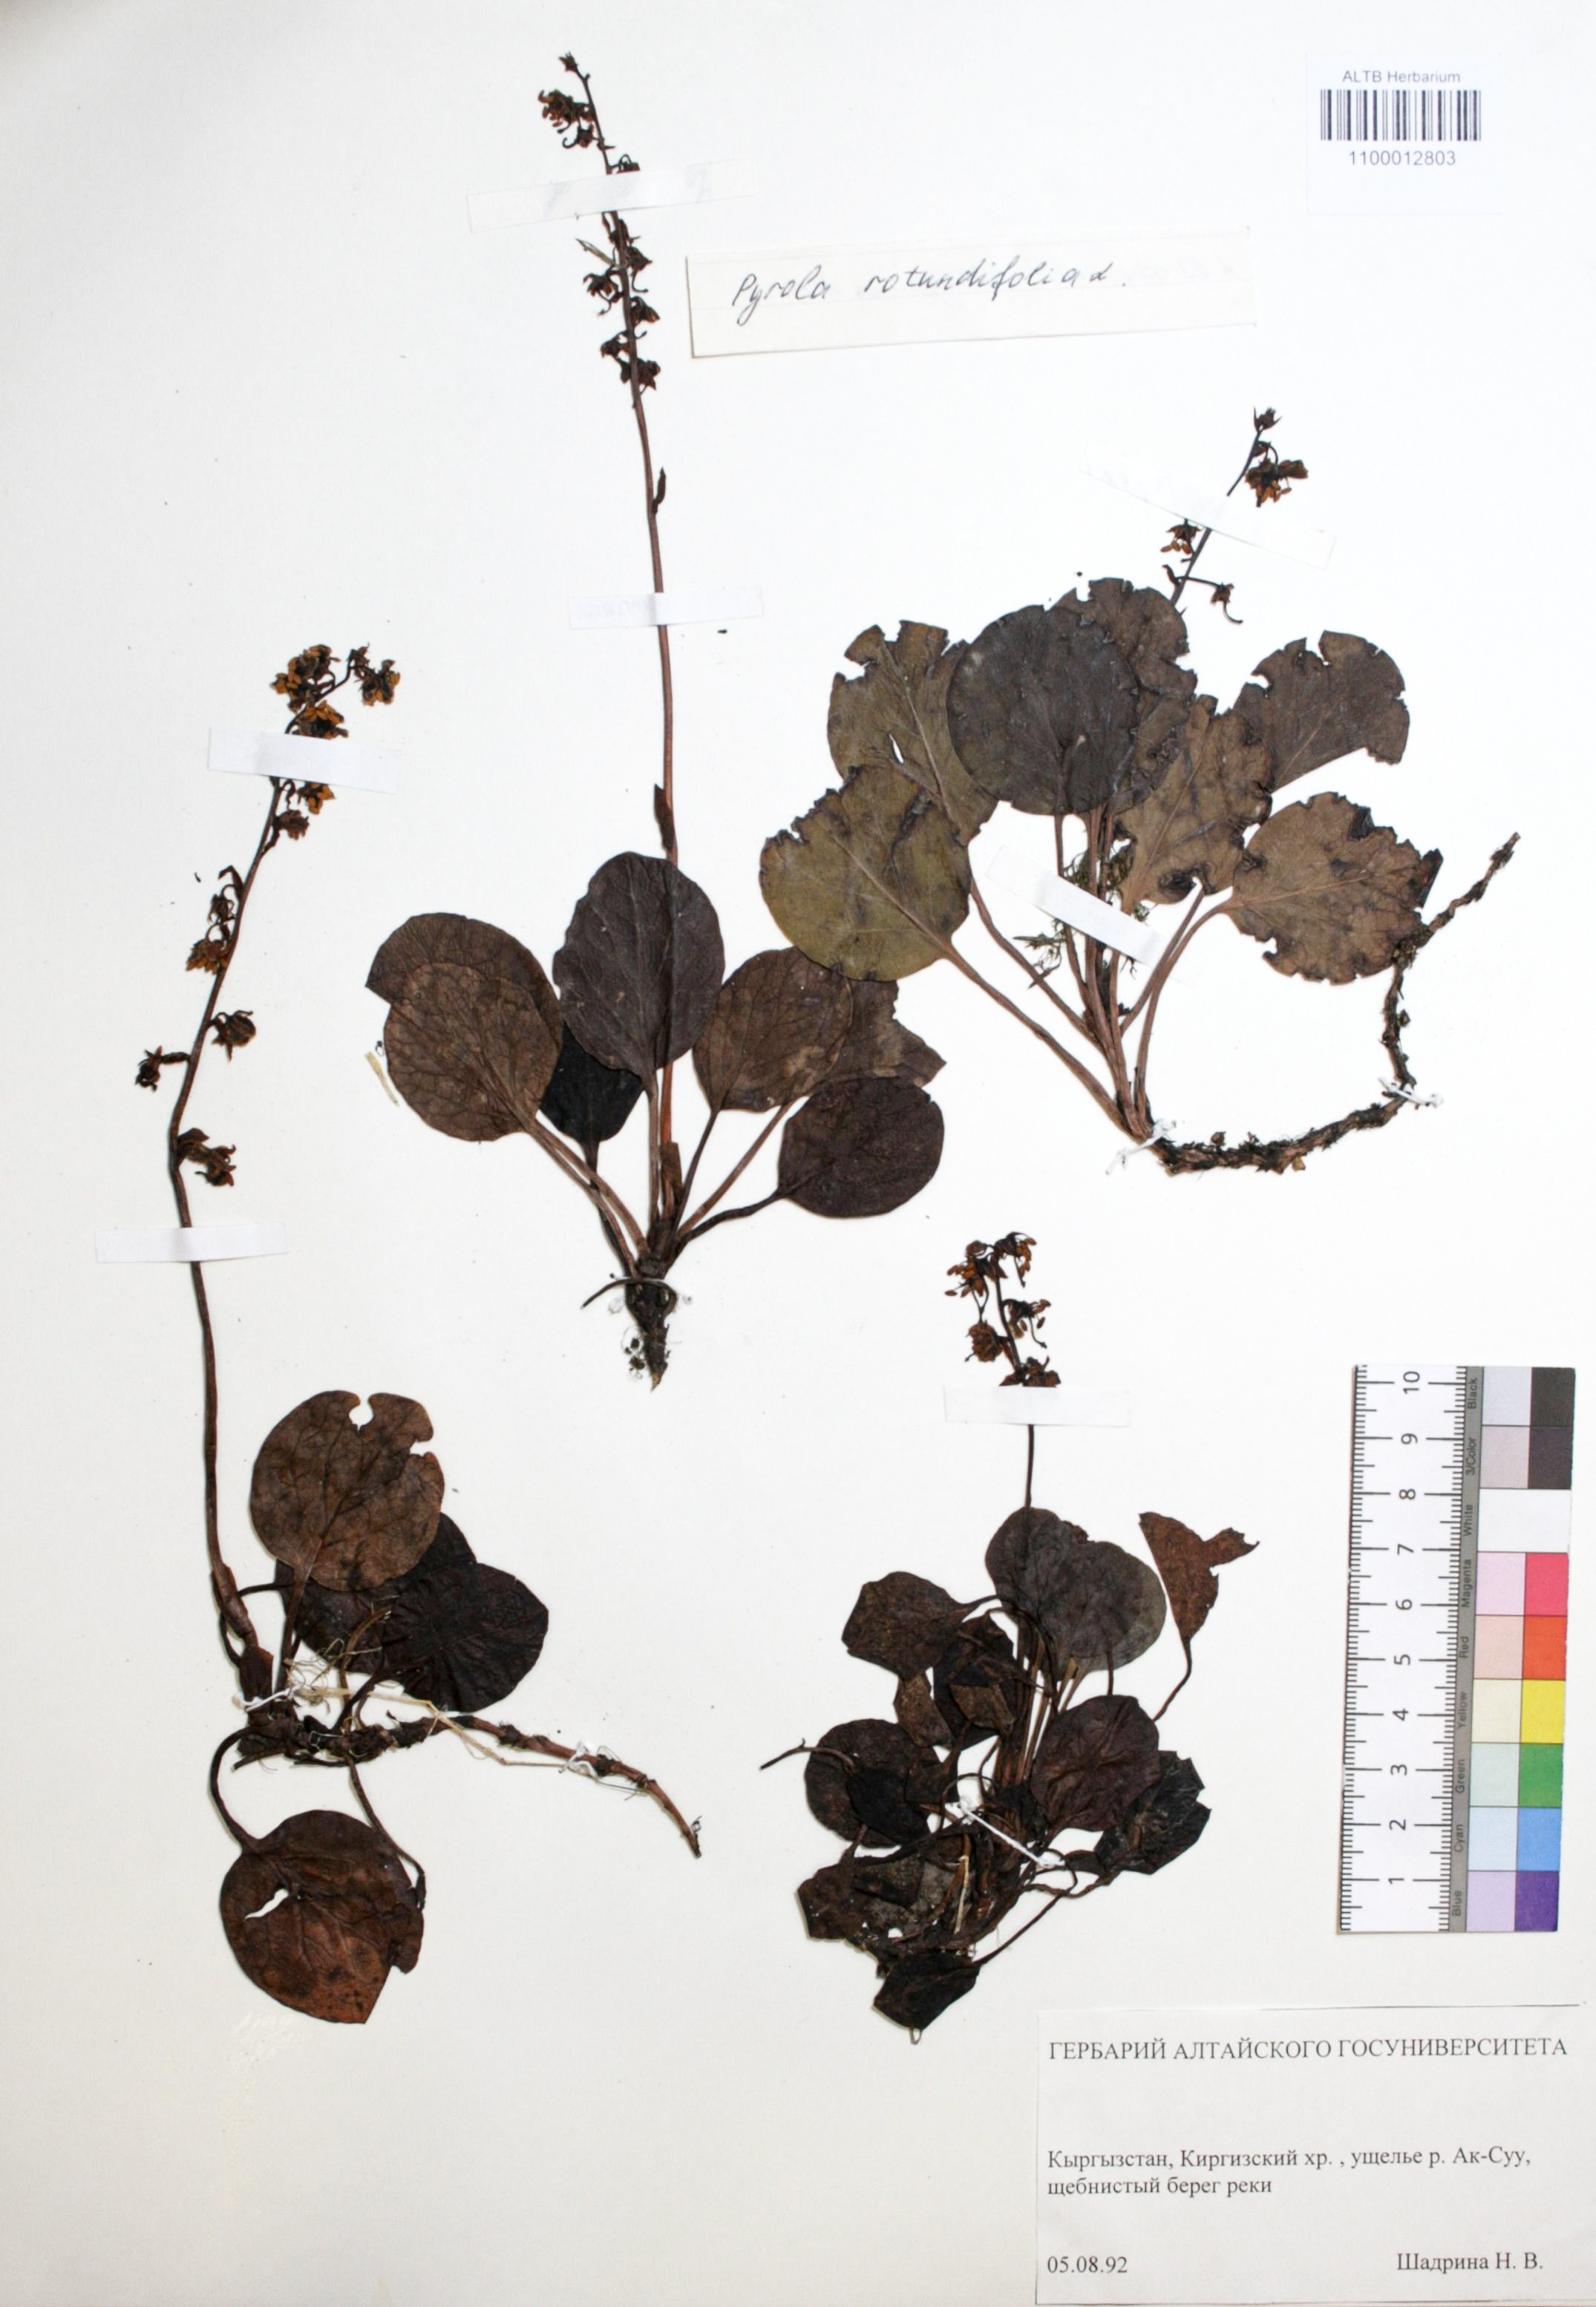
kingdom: Plantae
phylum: Tracheophyta
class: Magnoliopsida
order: Ericales
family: Ericaceae
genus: Pyrola
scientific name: Pyrola rotundifolia
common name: Round-leaved wintergreen
